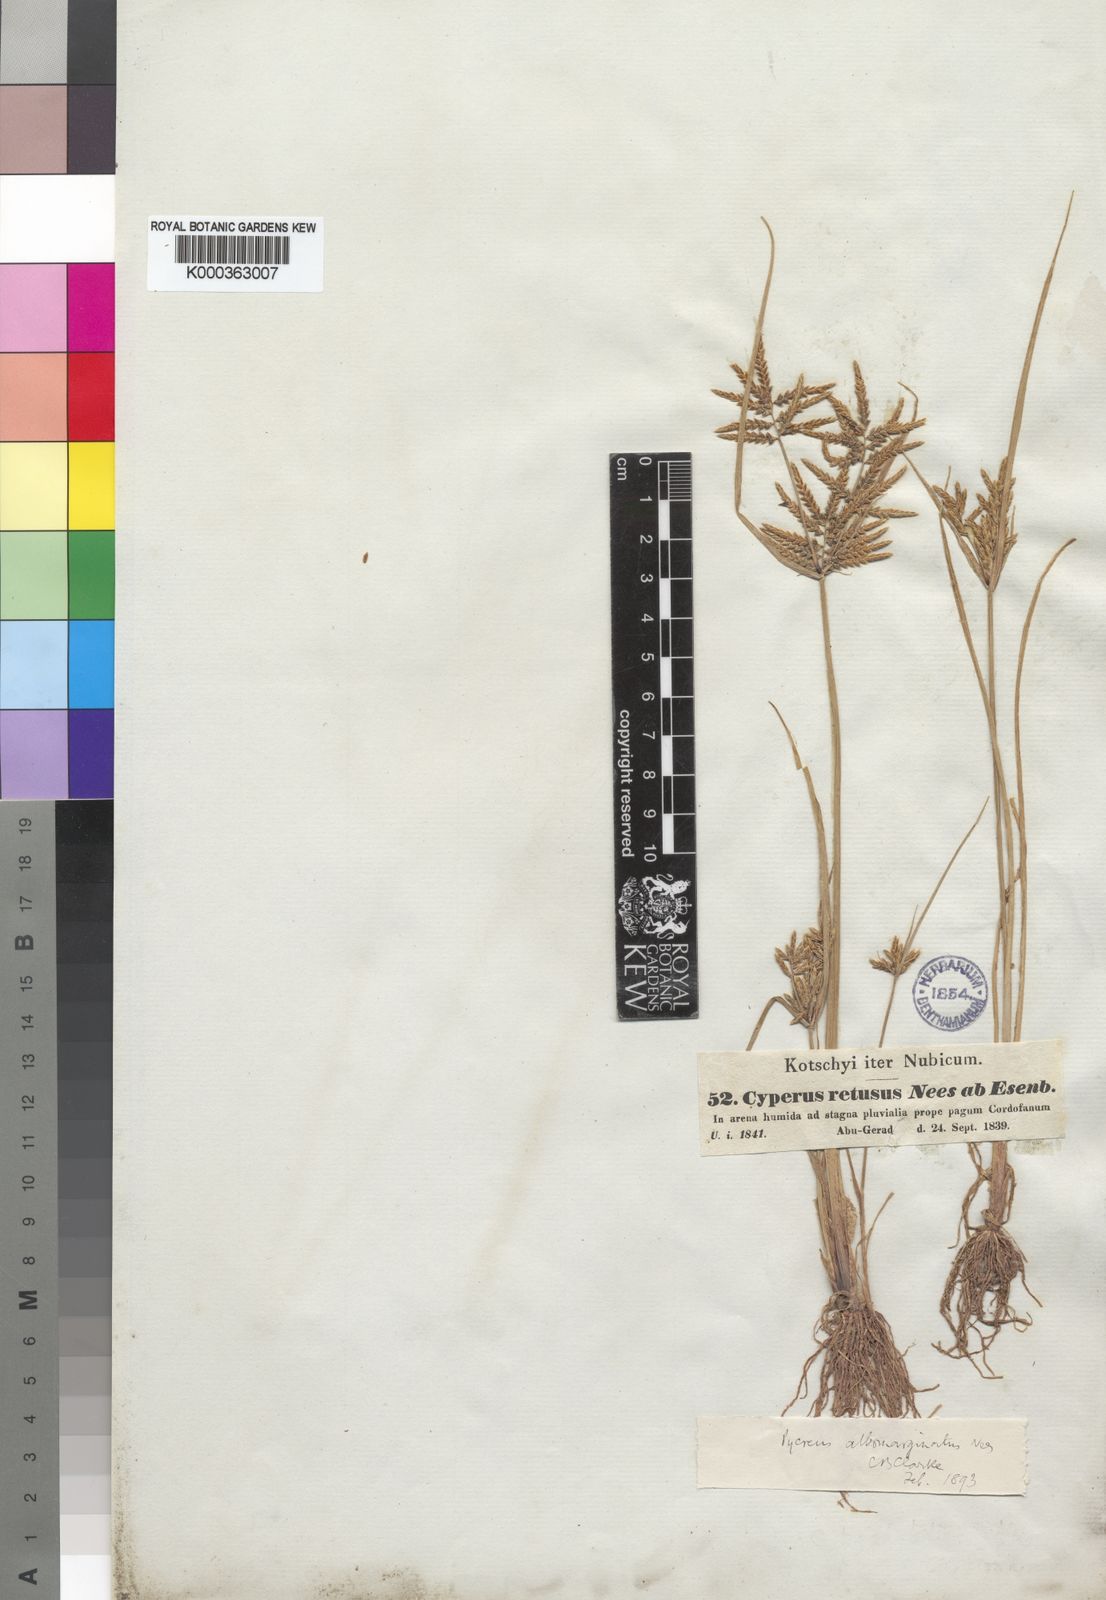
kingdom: Plantae
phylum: Tracheophyta
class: Liliopsida
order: Poales
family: Cyperaceae
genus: Cyperus
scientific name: Cyperus macrostachyos
